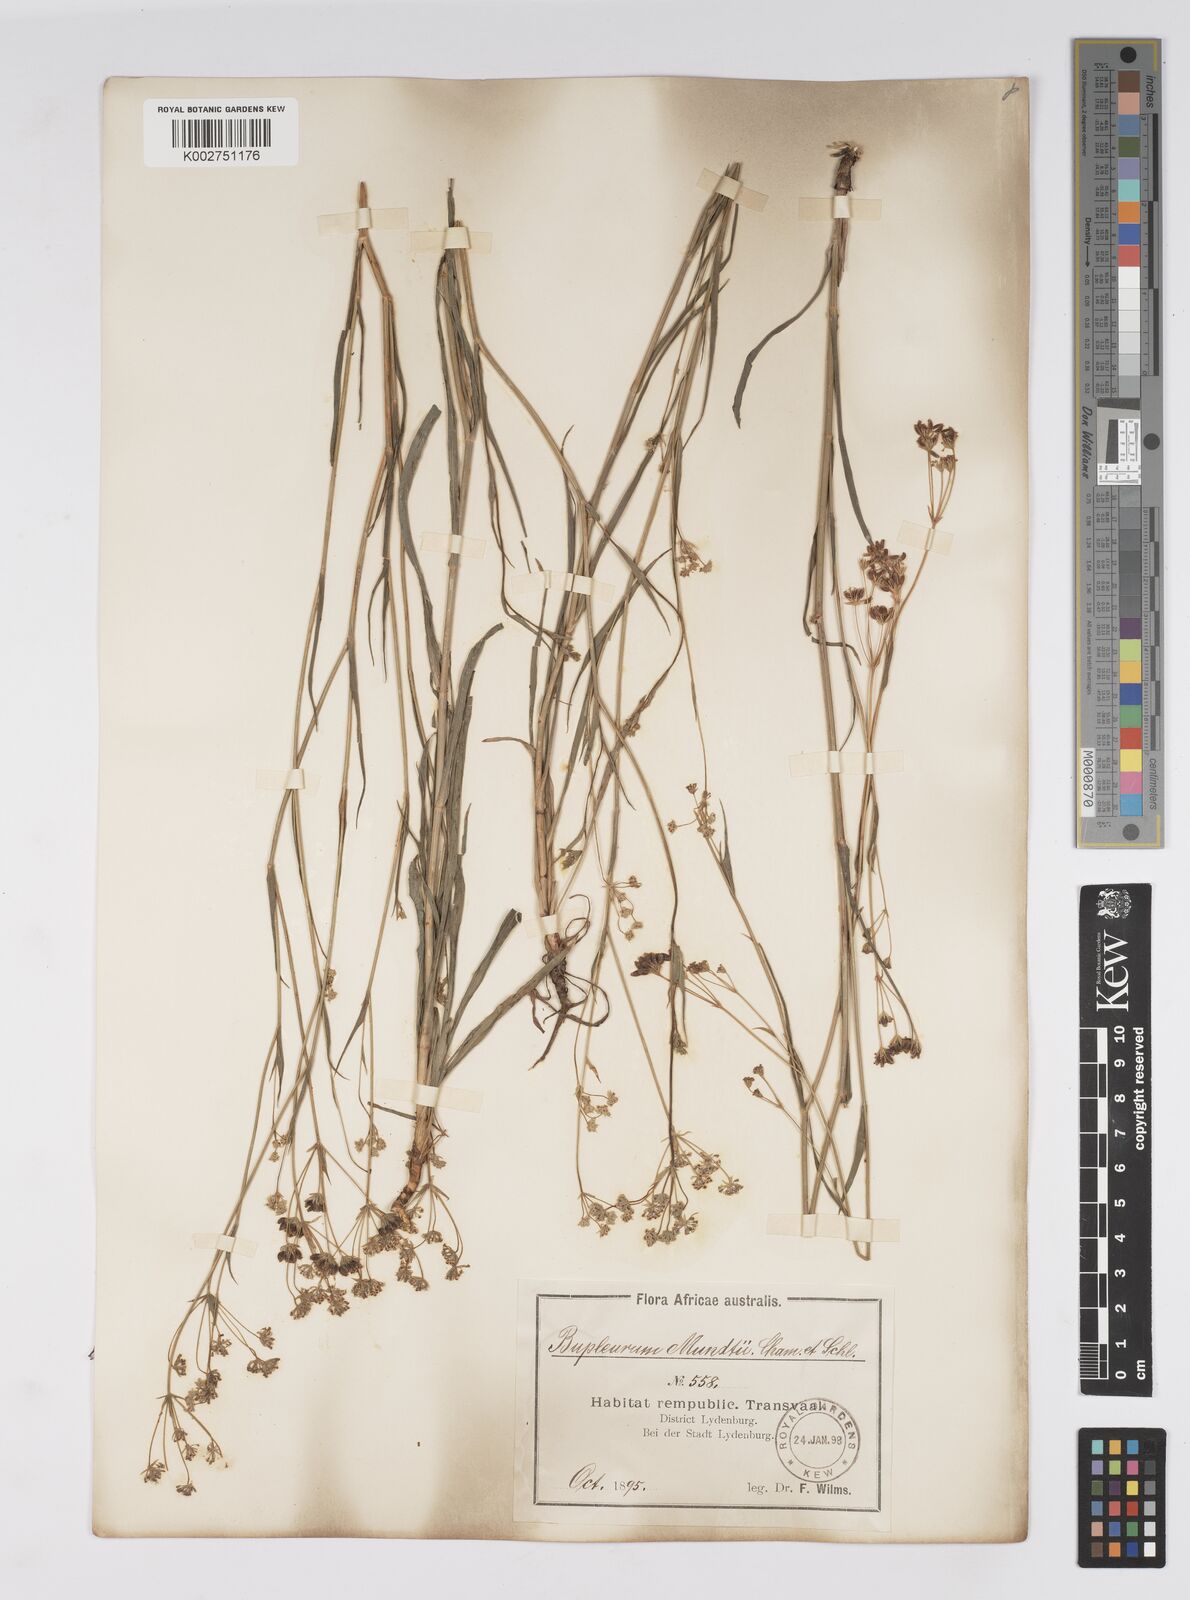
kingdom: Plantae
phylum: Tracheophyta
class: Magnoliopsida
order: Apiales
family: Apiaceae
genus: Bupleurum
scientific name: Bupleurum mundii
